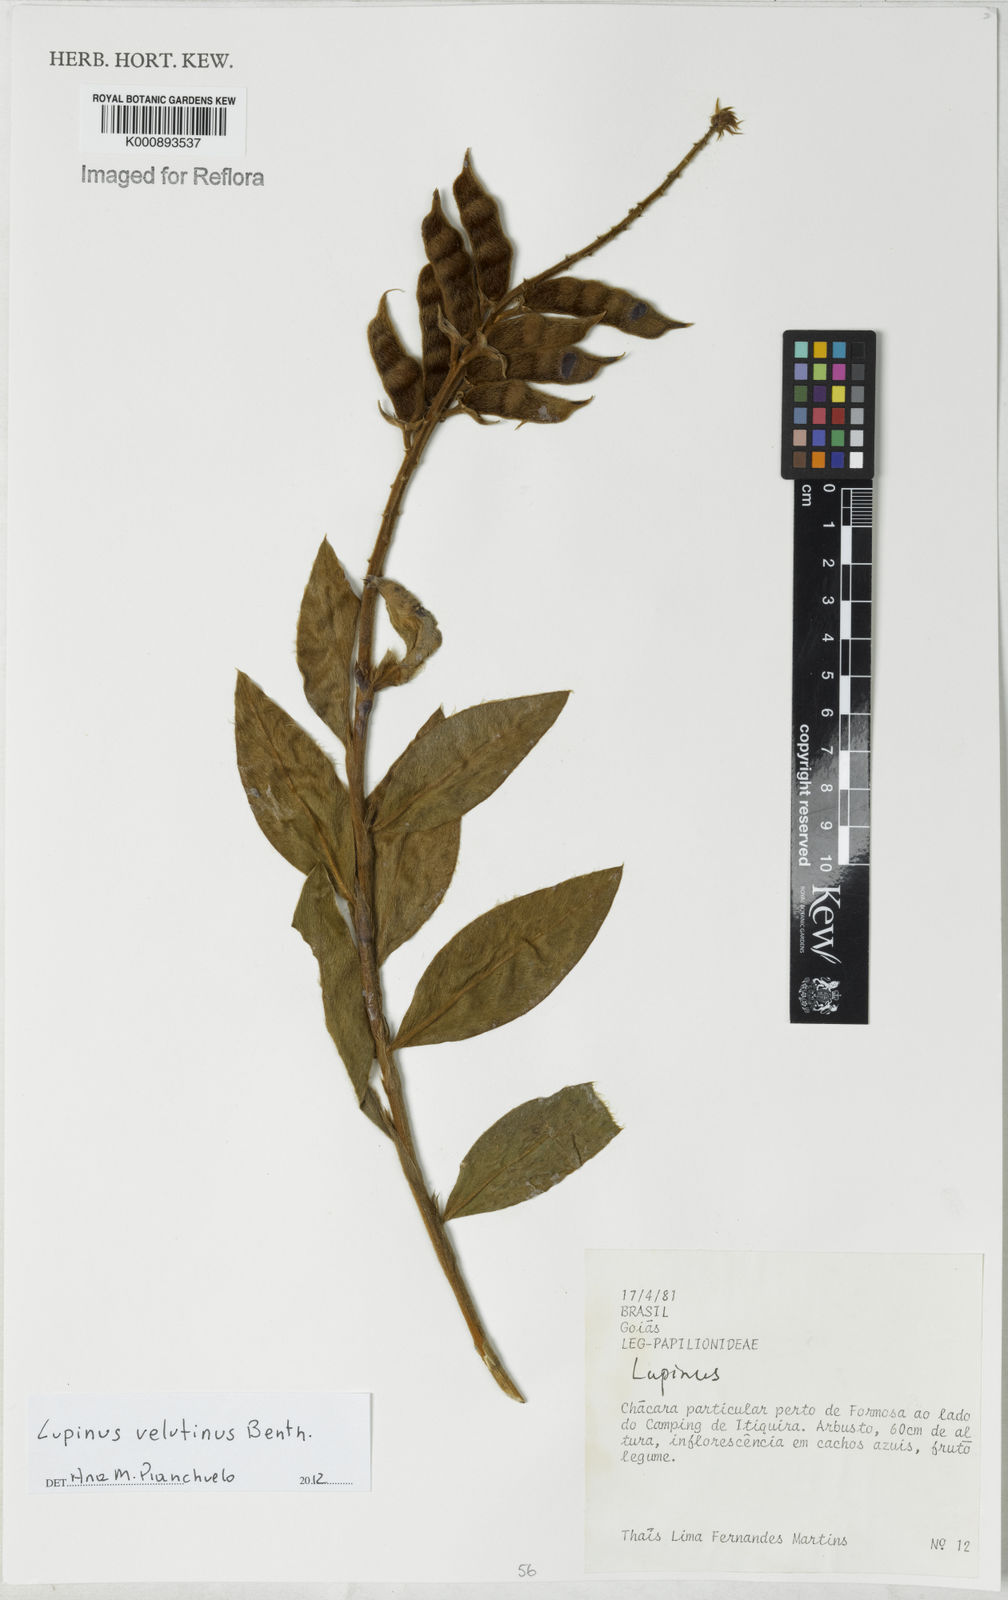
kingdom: Plantae
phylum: Tracheophyta
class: Magnoliopsida
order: Fabales
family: Fabaceae
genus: Lupinus
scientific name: Lupinus velutinus
